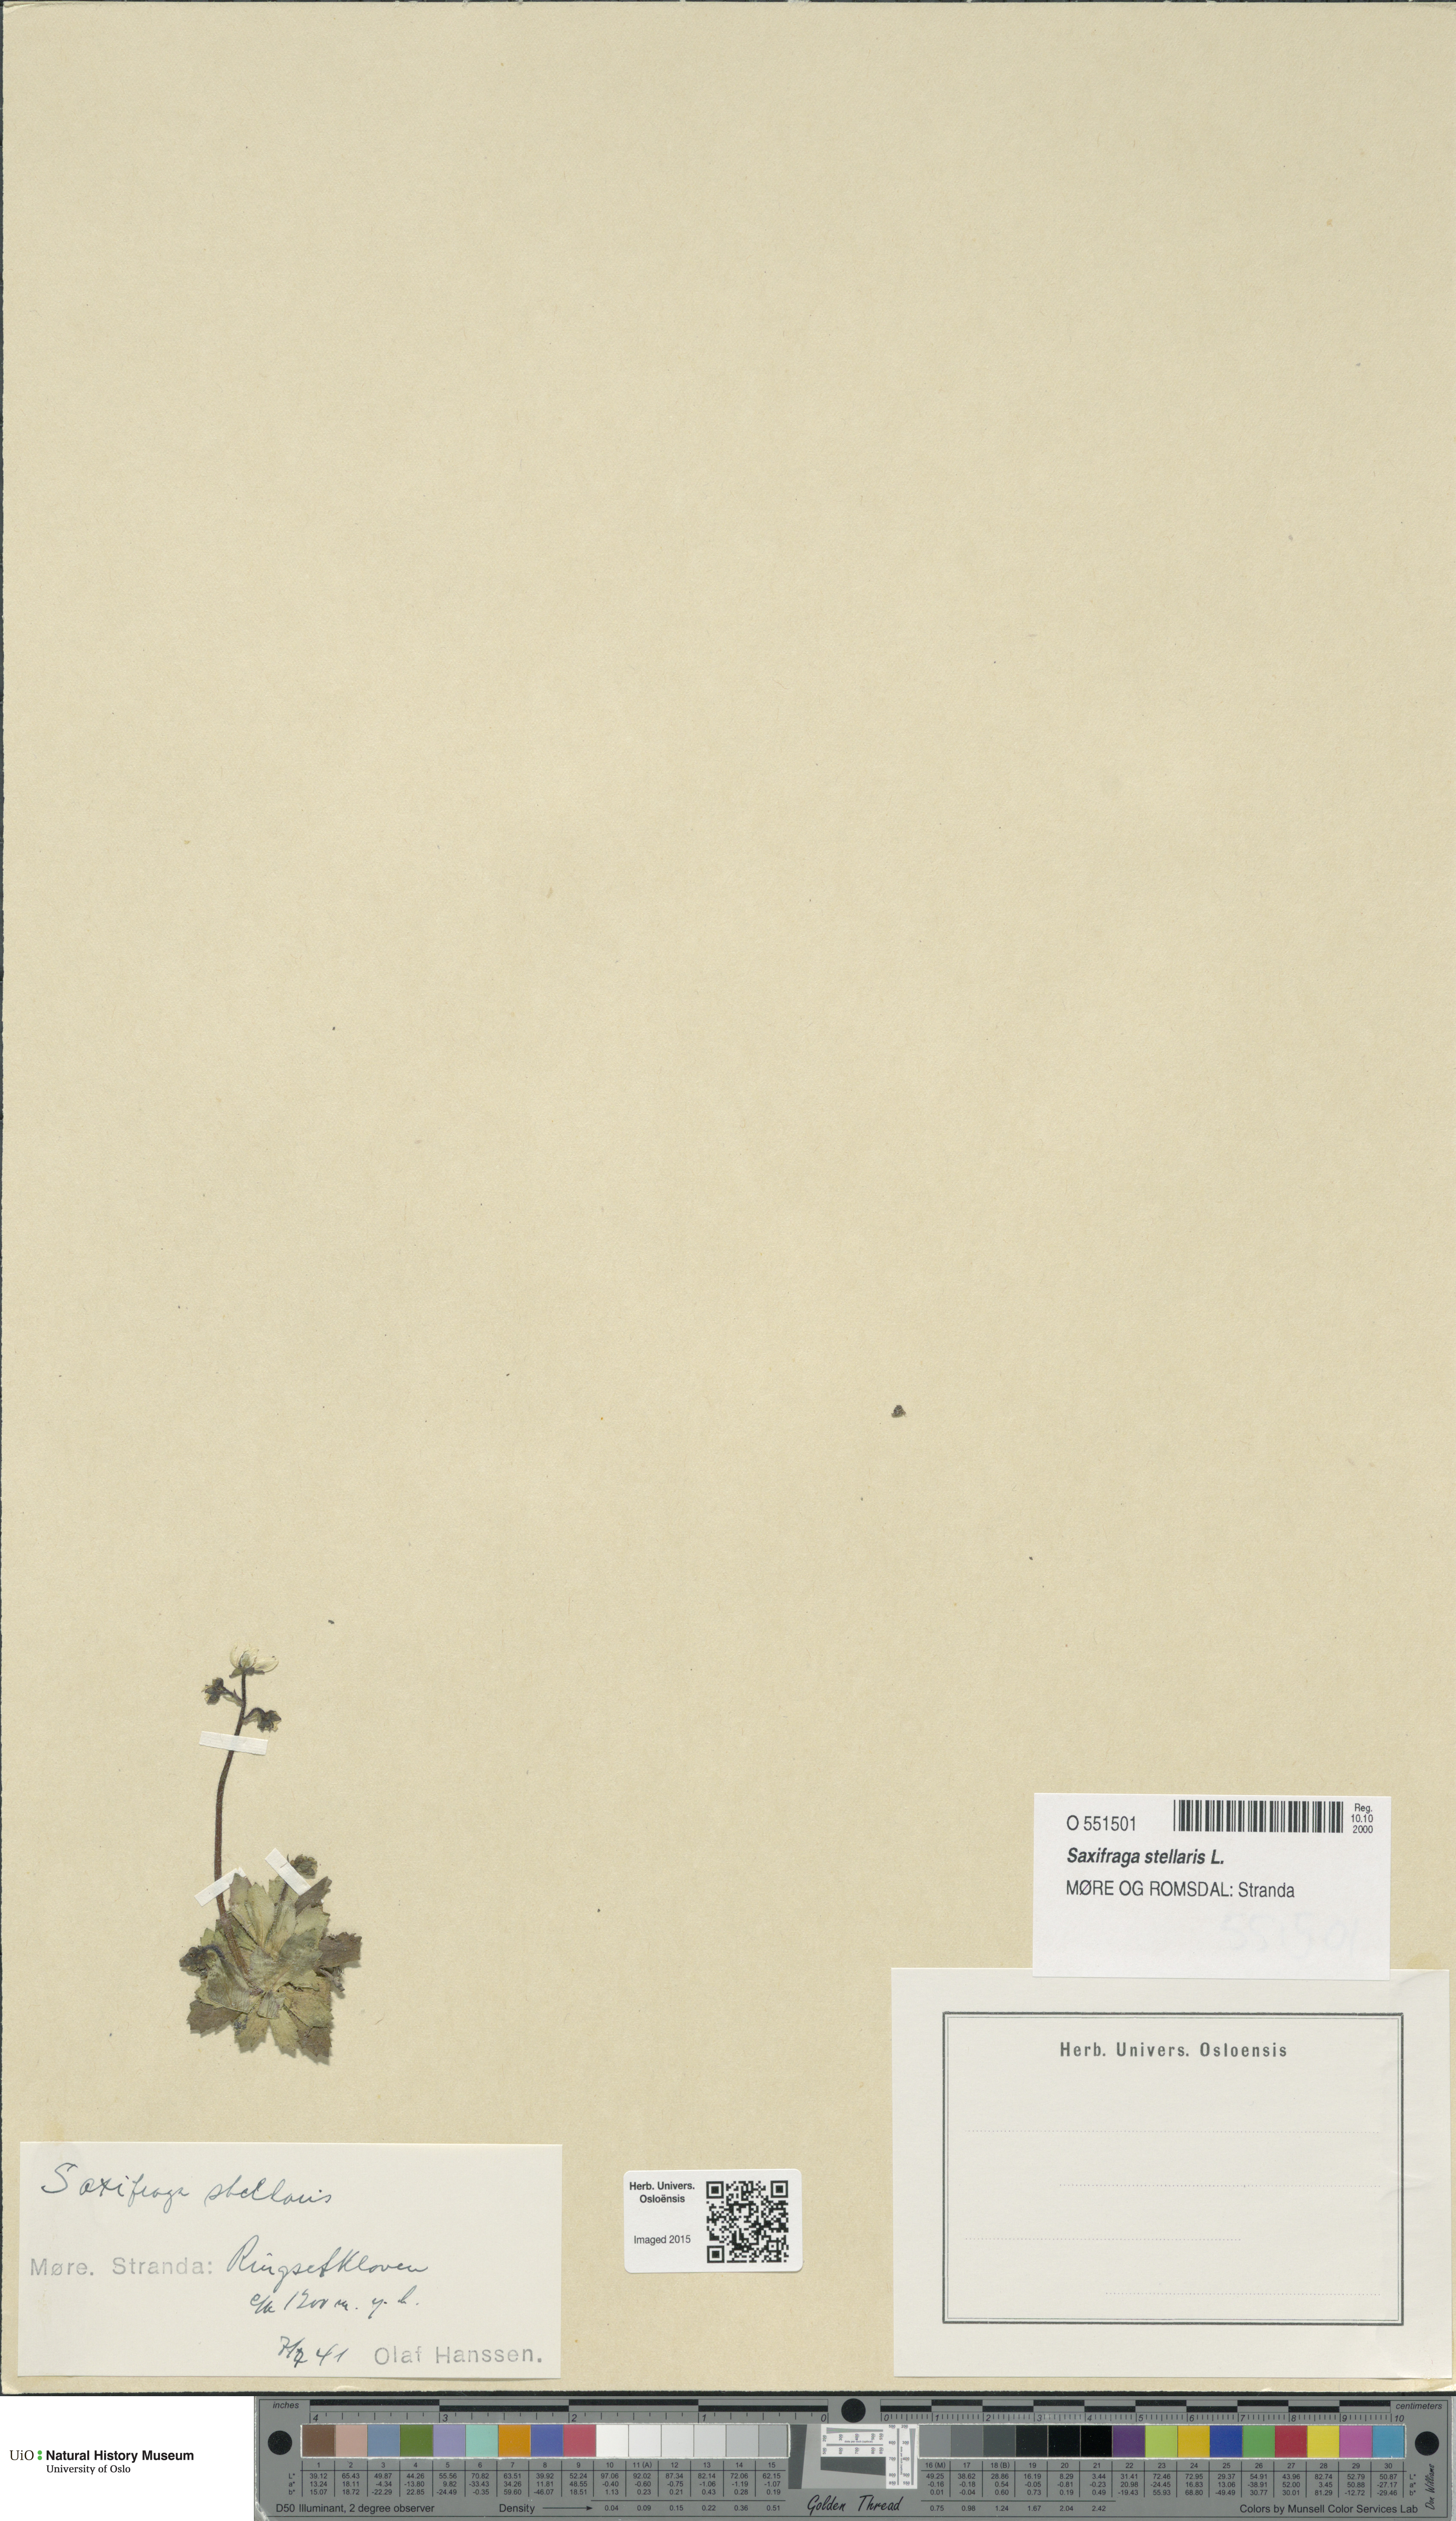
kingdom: Plantae
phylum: Tracheophyta
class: Magnoliopsida
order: Saxifragales
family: Saxifragaceae
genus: Micranthes
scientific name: Micranthes stellaris
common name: Starry saxifrage
